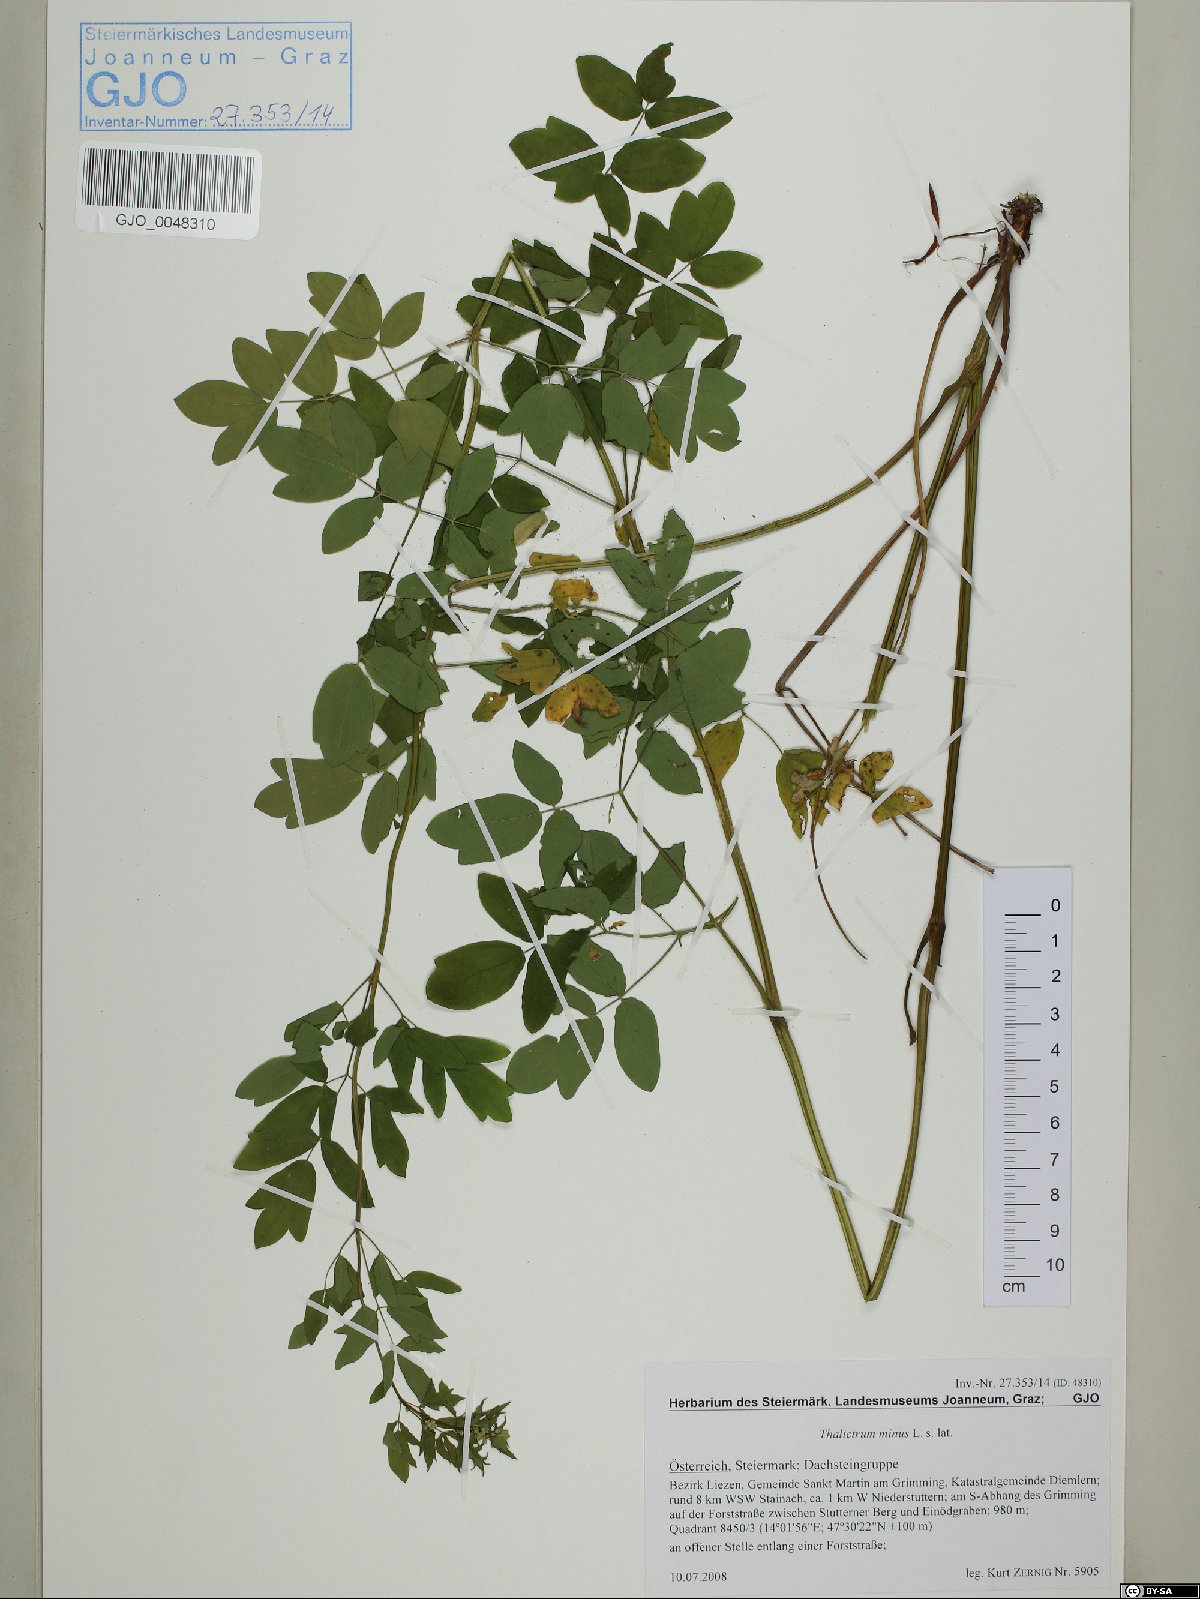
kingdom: Plantae
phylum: Tracheophyta
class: Magnoliopsida
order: Ranunculales
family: Ranunculaceae
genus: Thalictrum
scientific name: Thalictrum minus
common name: Lesser meadow-rue
